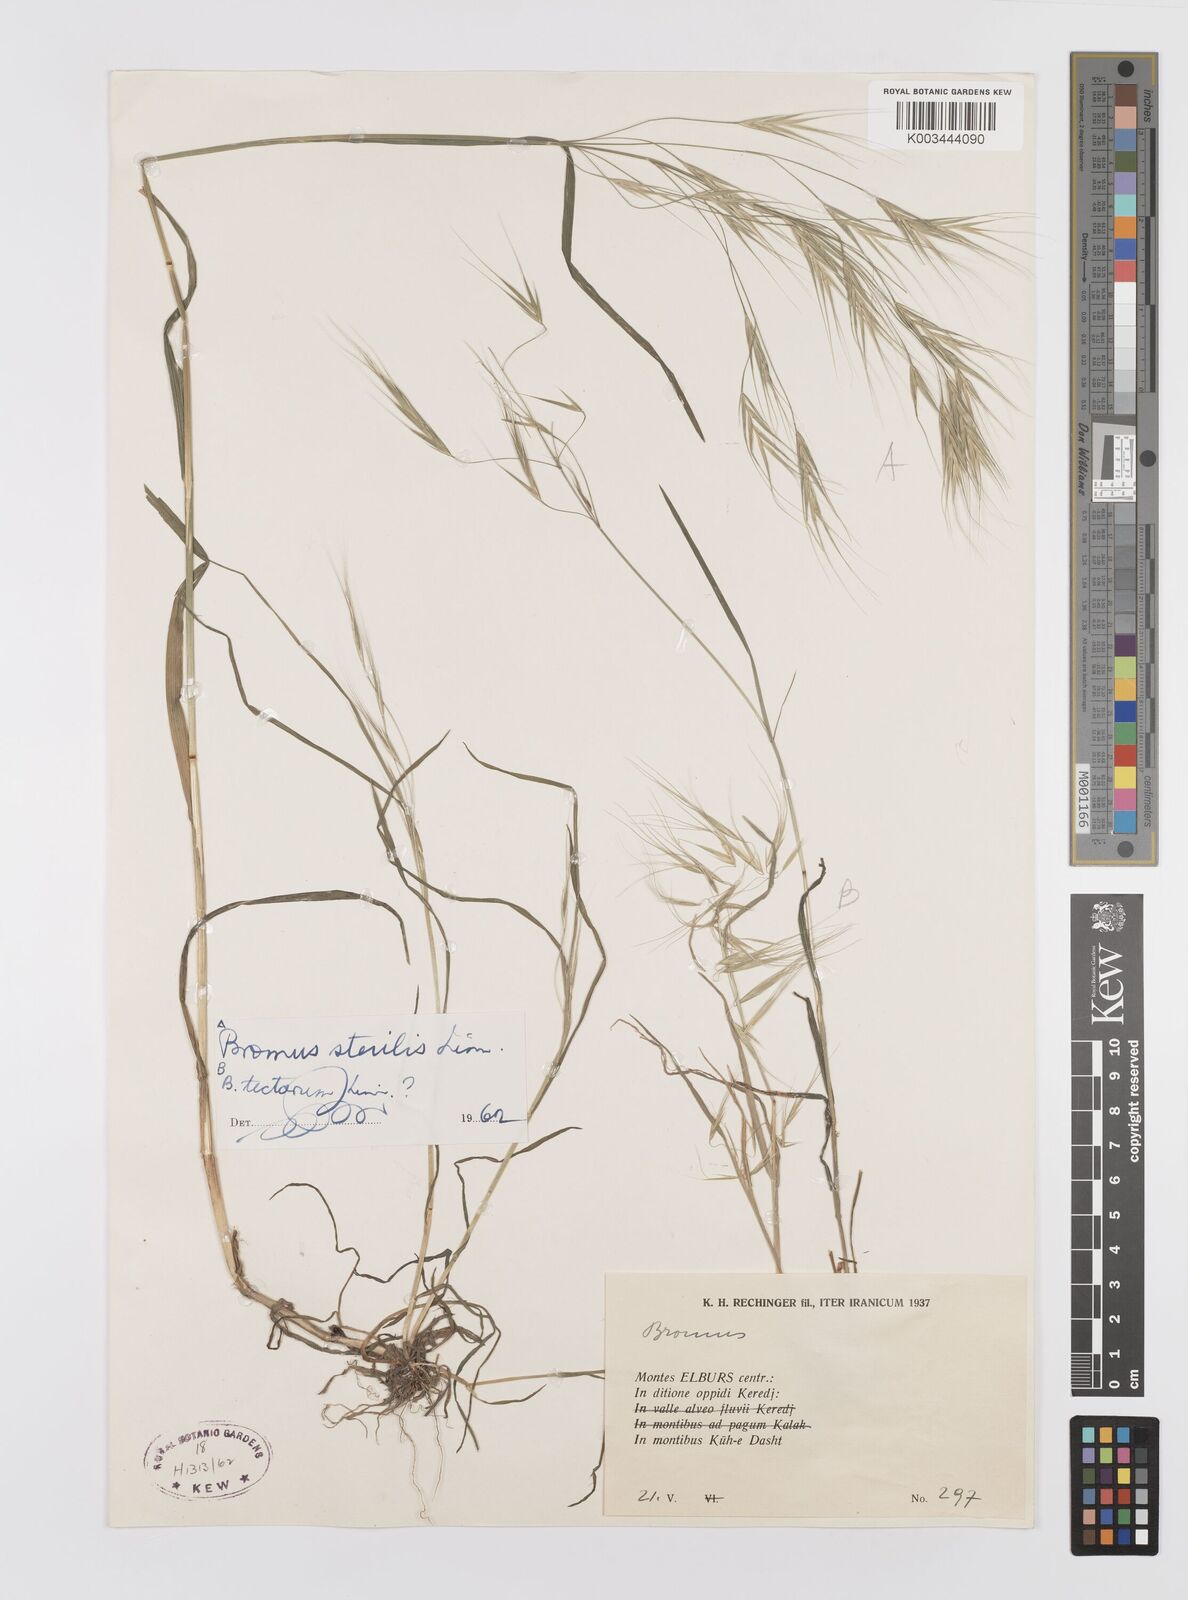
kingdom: Plantae
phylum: Tracheophyta
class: Liliopsida
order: Poales
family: Poaceae
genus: Bromus
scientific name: Bromus sterilis
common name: Poverty brome
